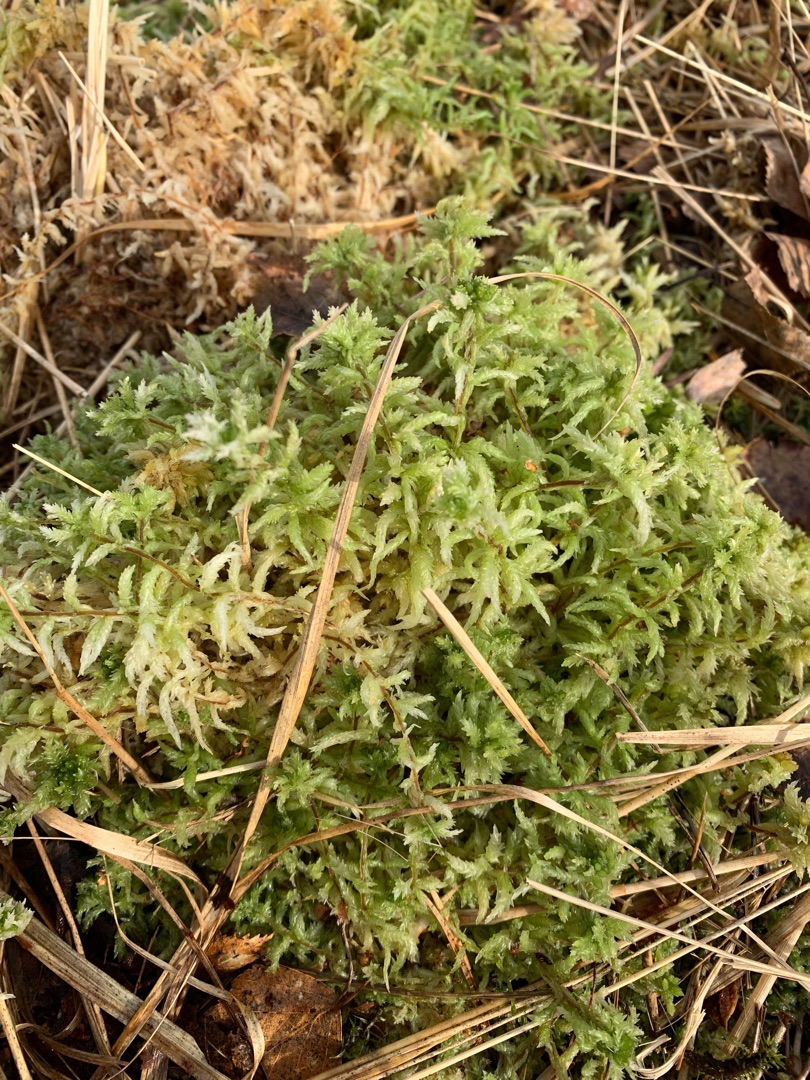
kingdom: Plantae
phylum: Bryophyta
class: Sphagnopsida
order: Sphagnales
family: Sphagnaceae
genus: Sphagnum
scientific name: Sphagnum palustre
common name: Almindelig tørvemos
